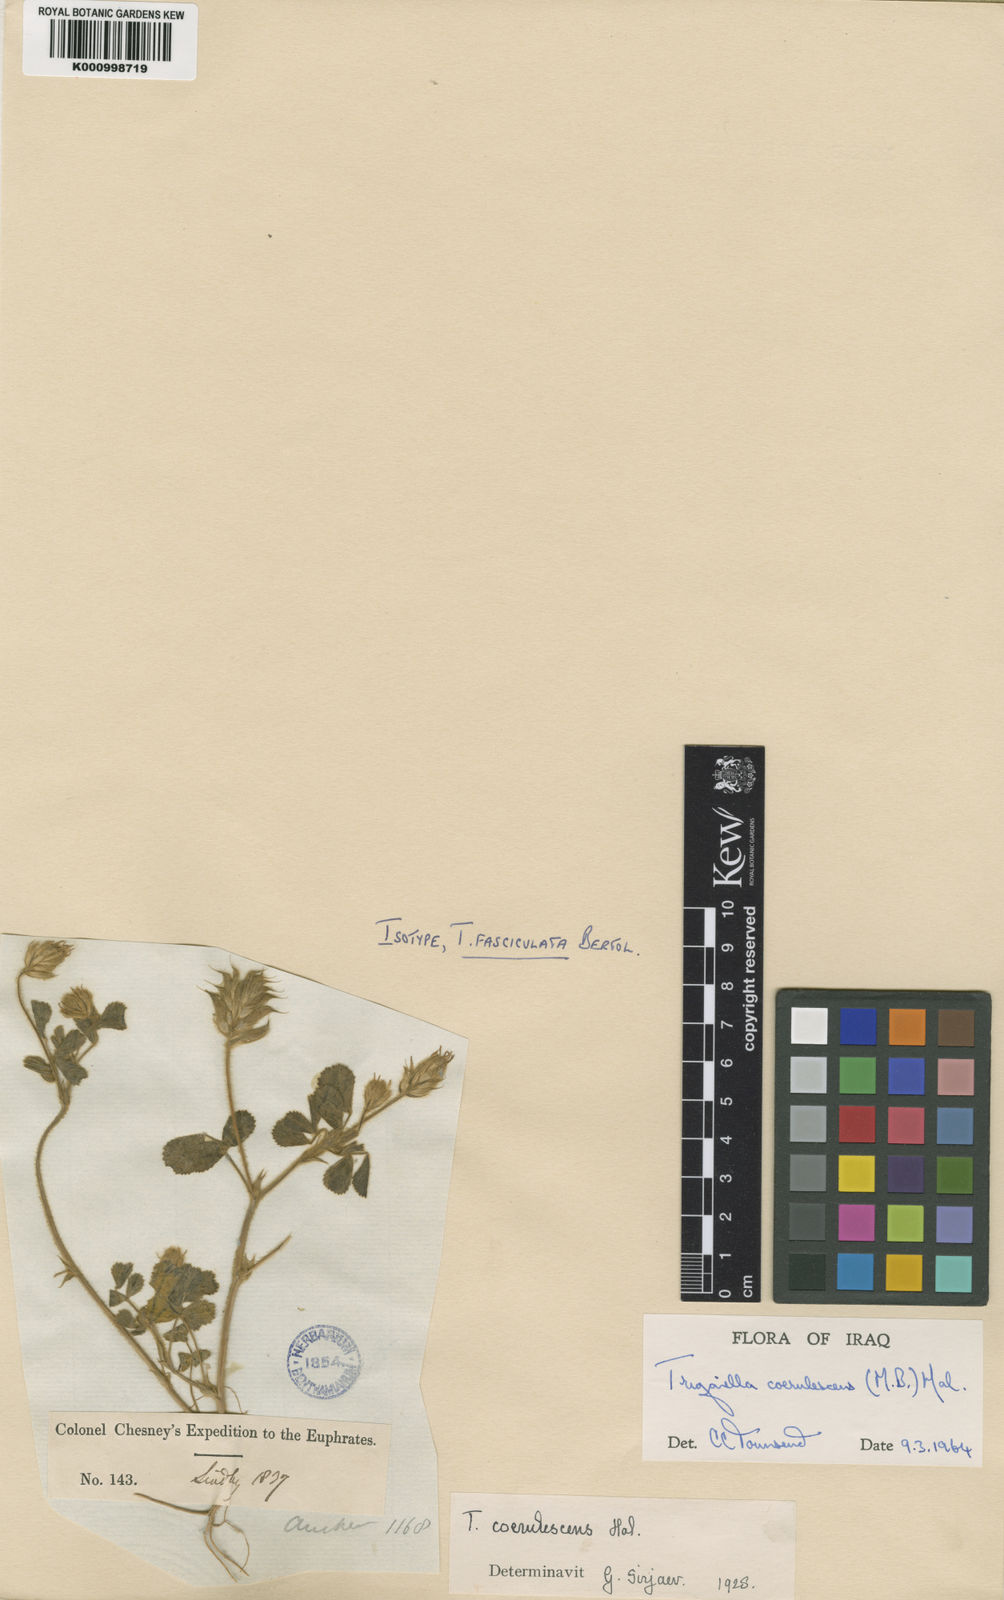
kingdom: Plantae
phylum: Tracheophyta
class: Magnoliopsida
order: Fabales
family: Fabaceae
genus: Trigonella
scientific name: Trigonella
